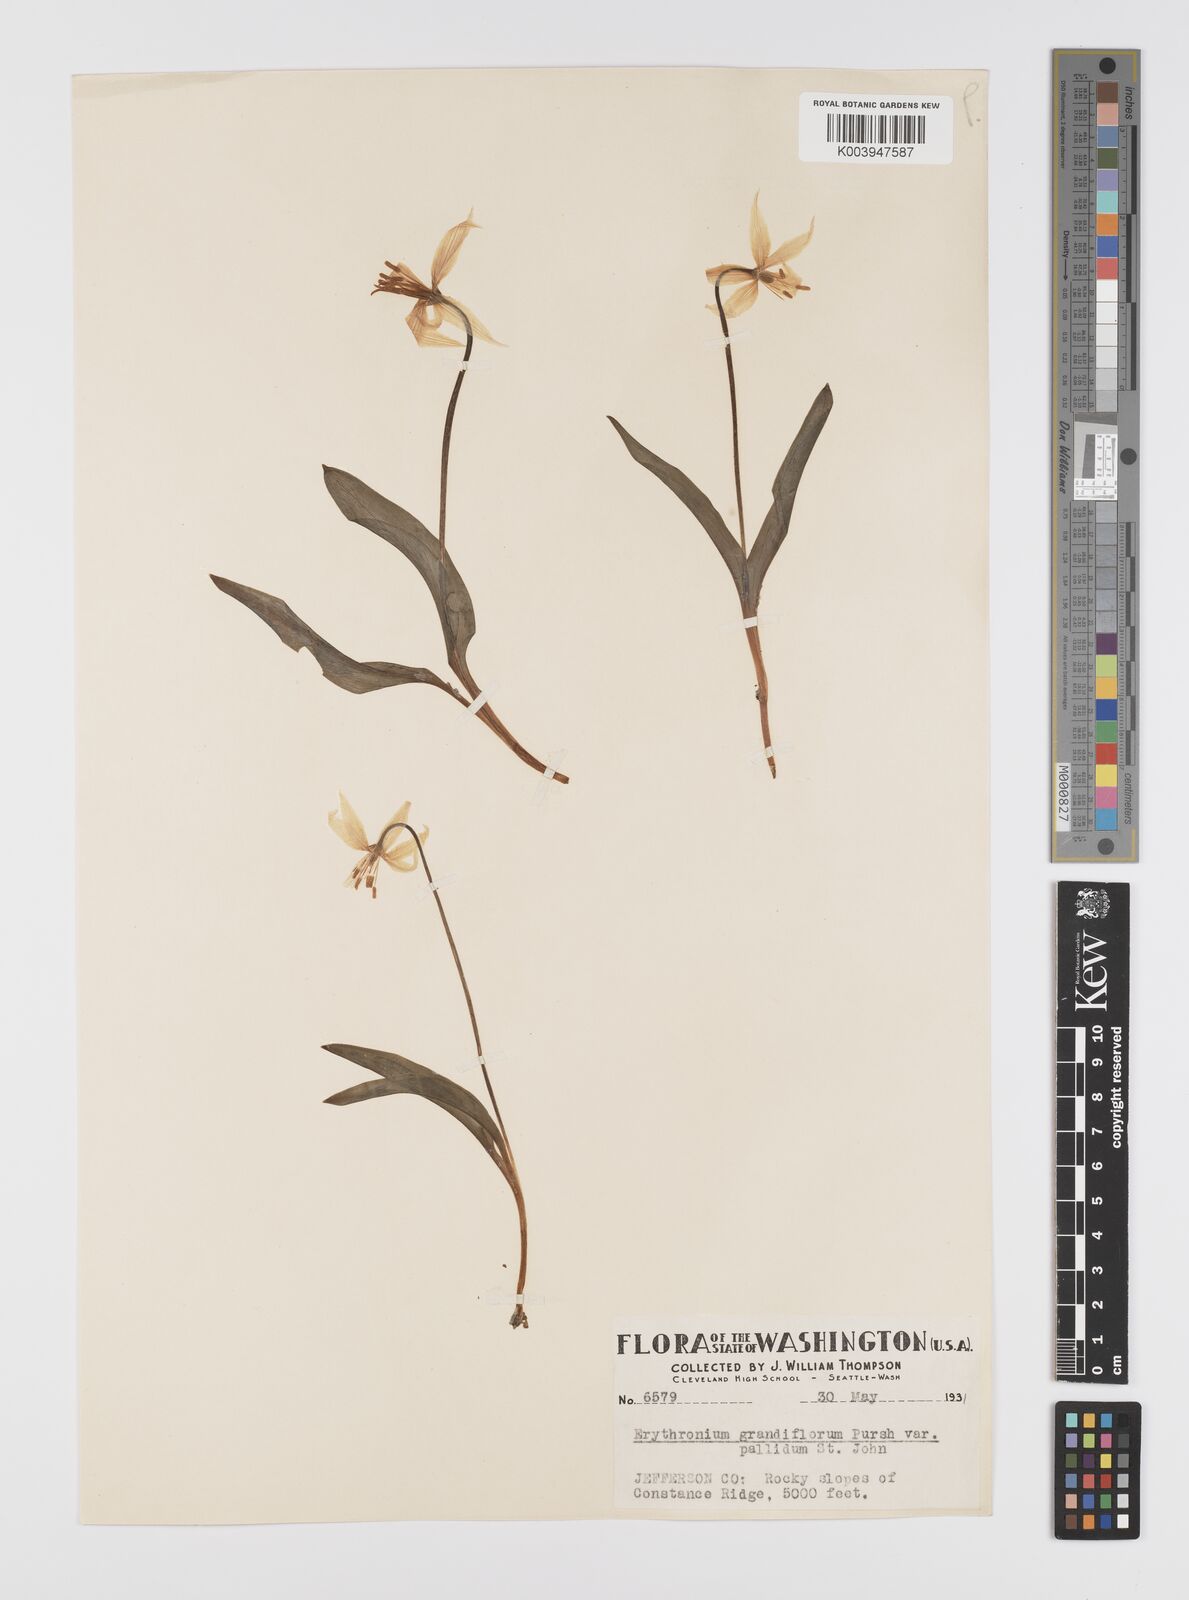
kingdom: Plantae
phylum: Tracheophyta
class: Liliopsida
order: Liliales
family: Liliaceae
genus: Erythronium
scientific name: Erythronium grandiflorum
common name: Avalanche-lily
